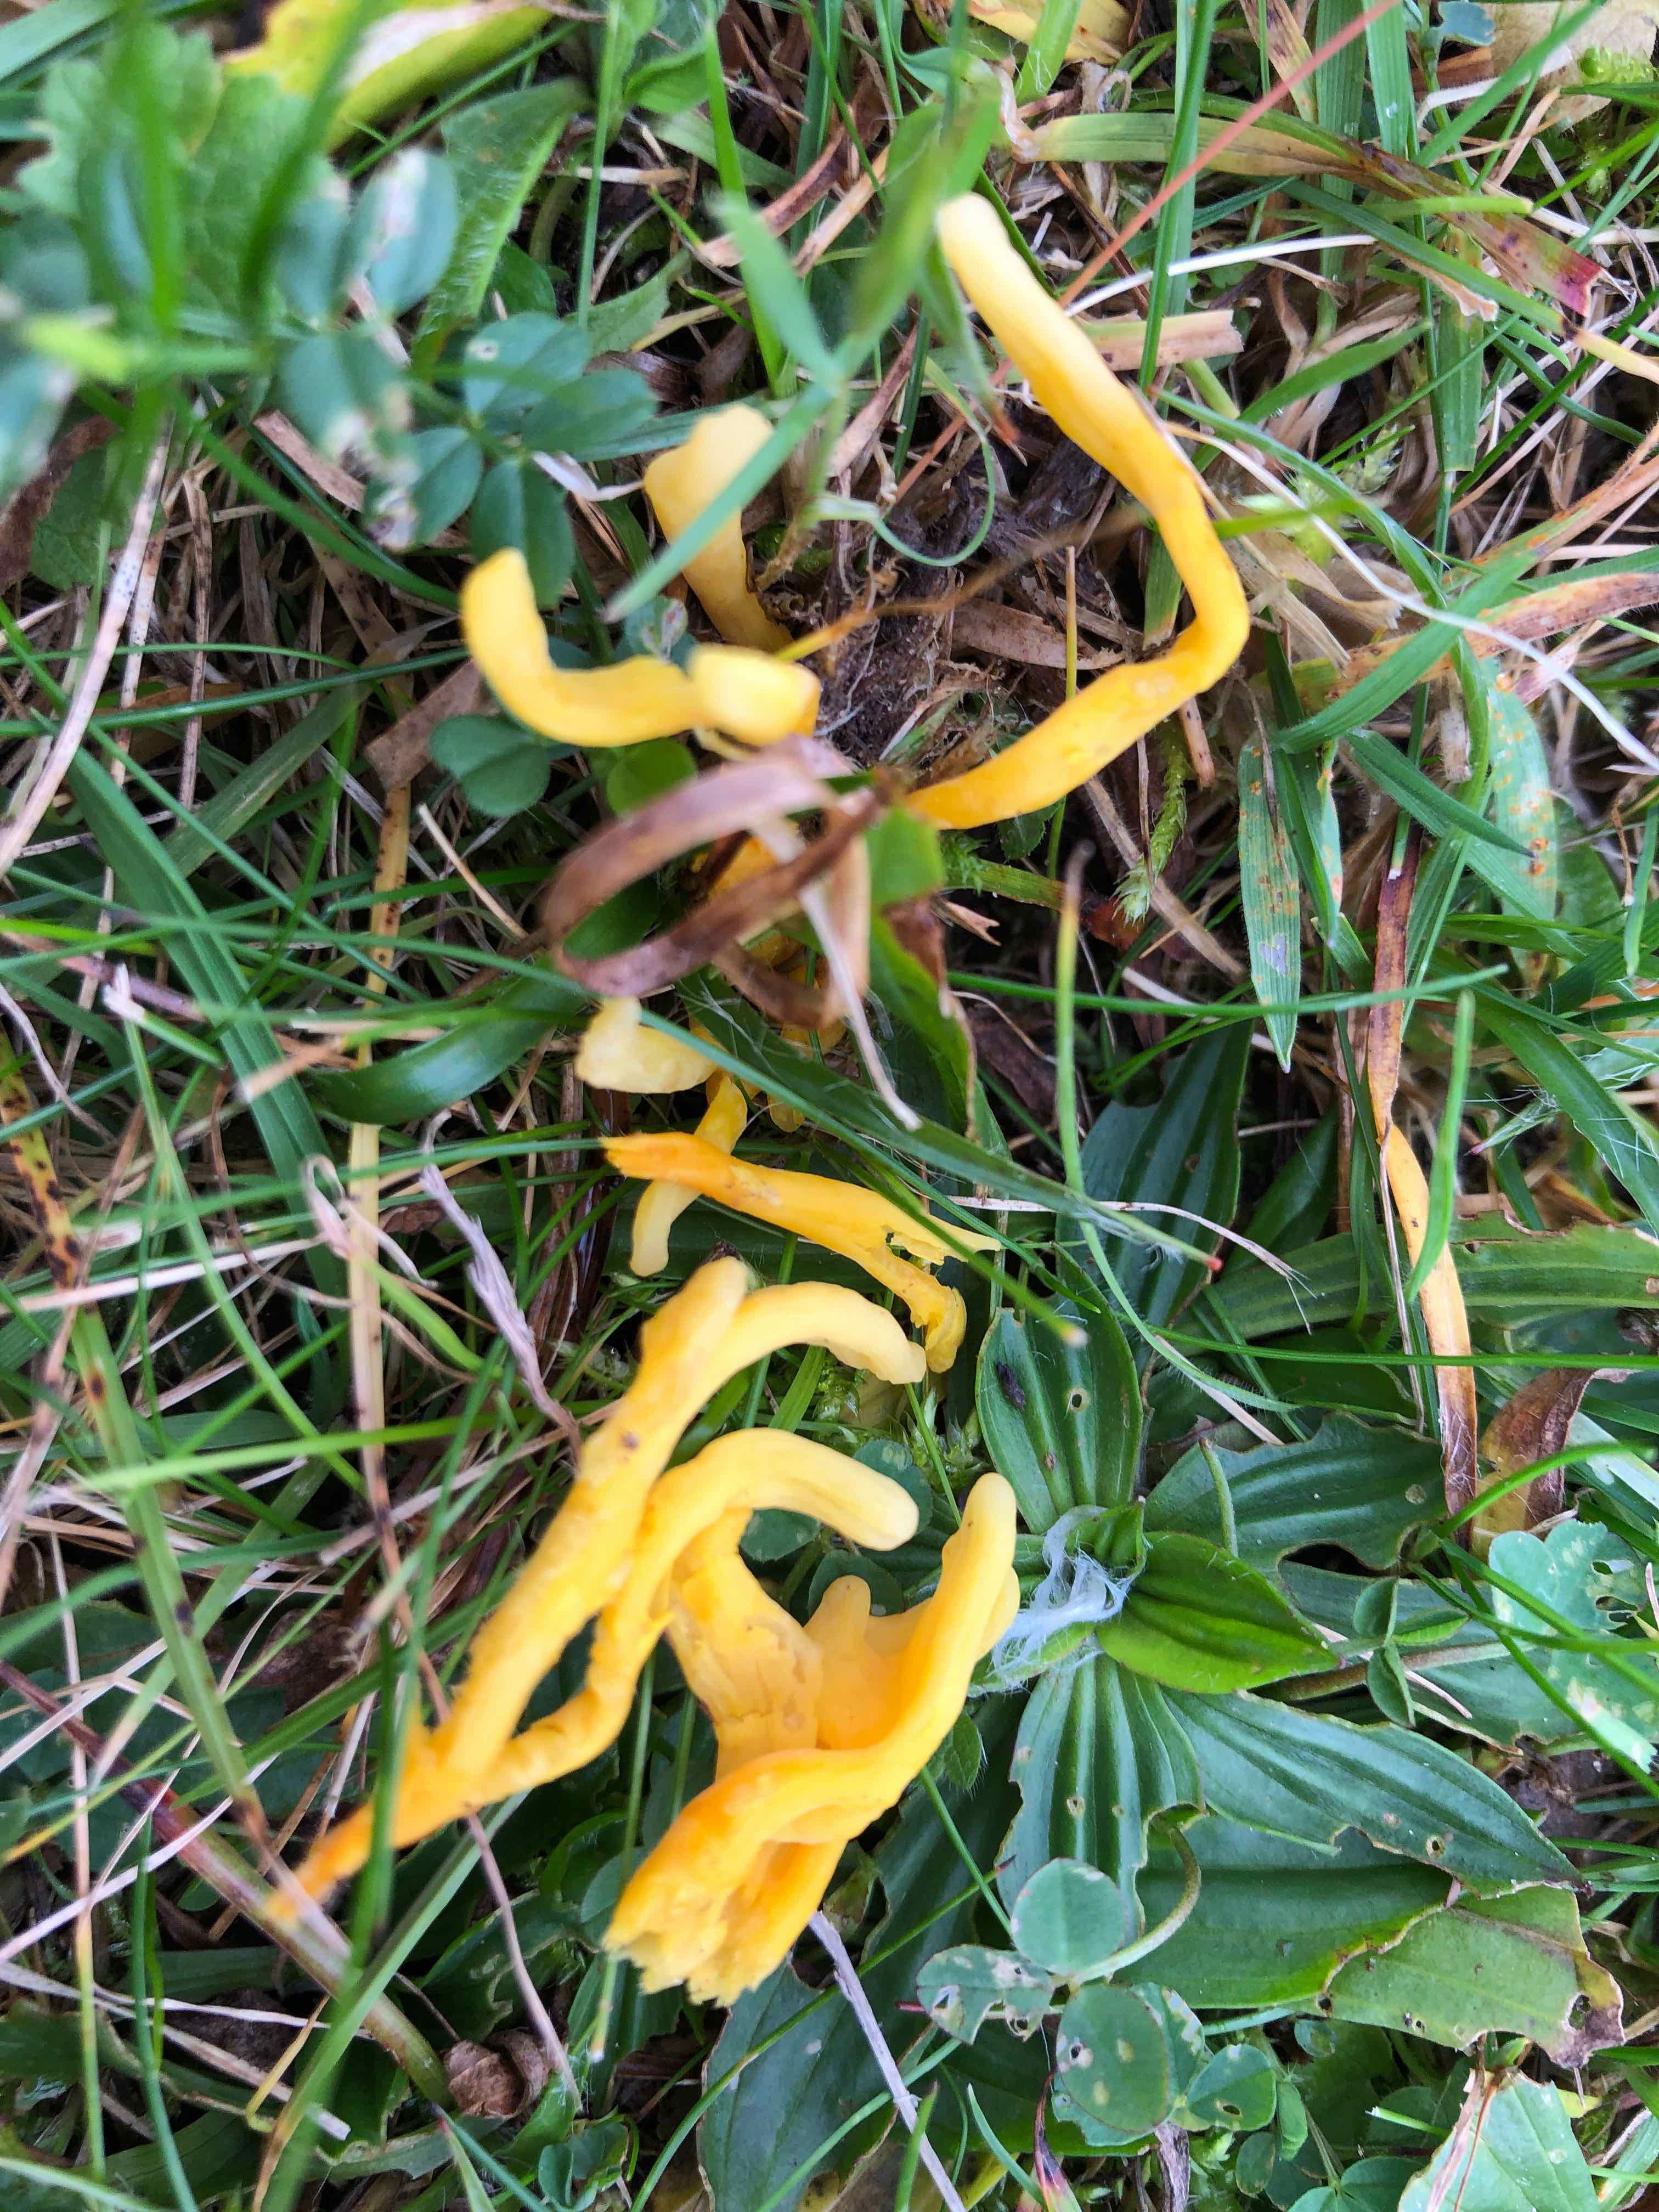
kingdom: Fungi
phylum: Basidiomycota
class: Agaricomycetes
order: Agaricales
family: Clavariaceae
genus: Clavulinopsis
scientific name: Clavulinopsis helvola
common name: orangegul køllesvamp
